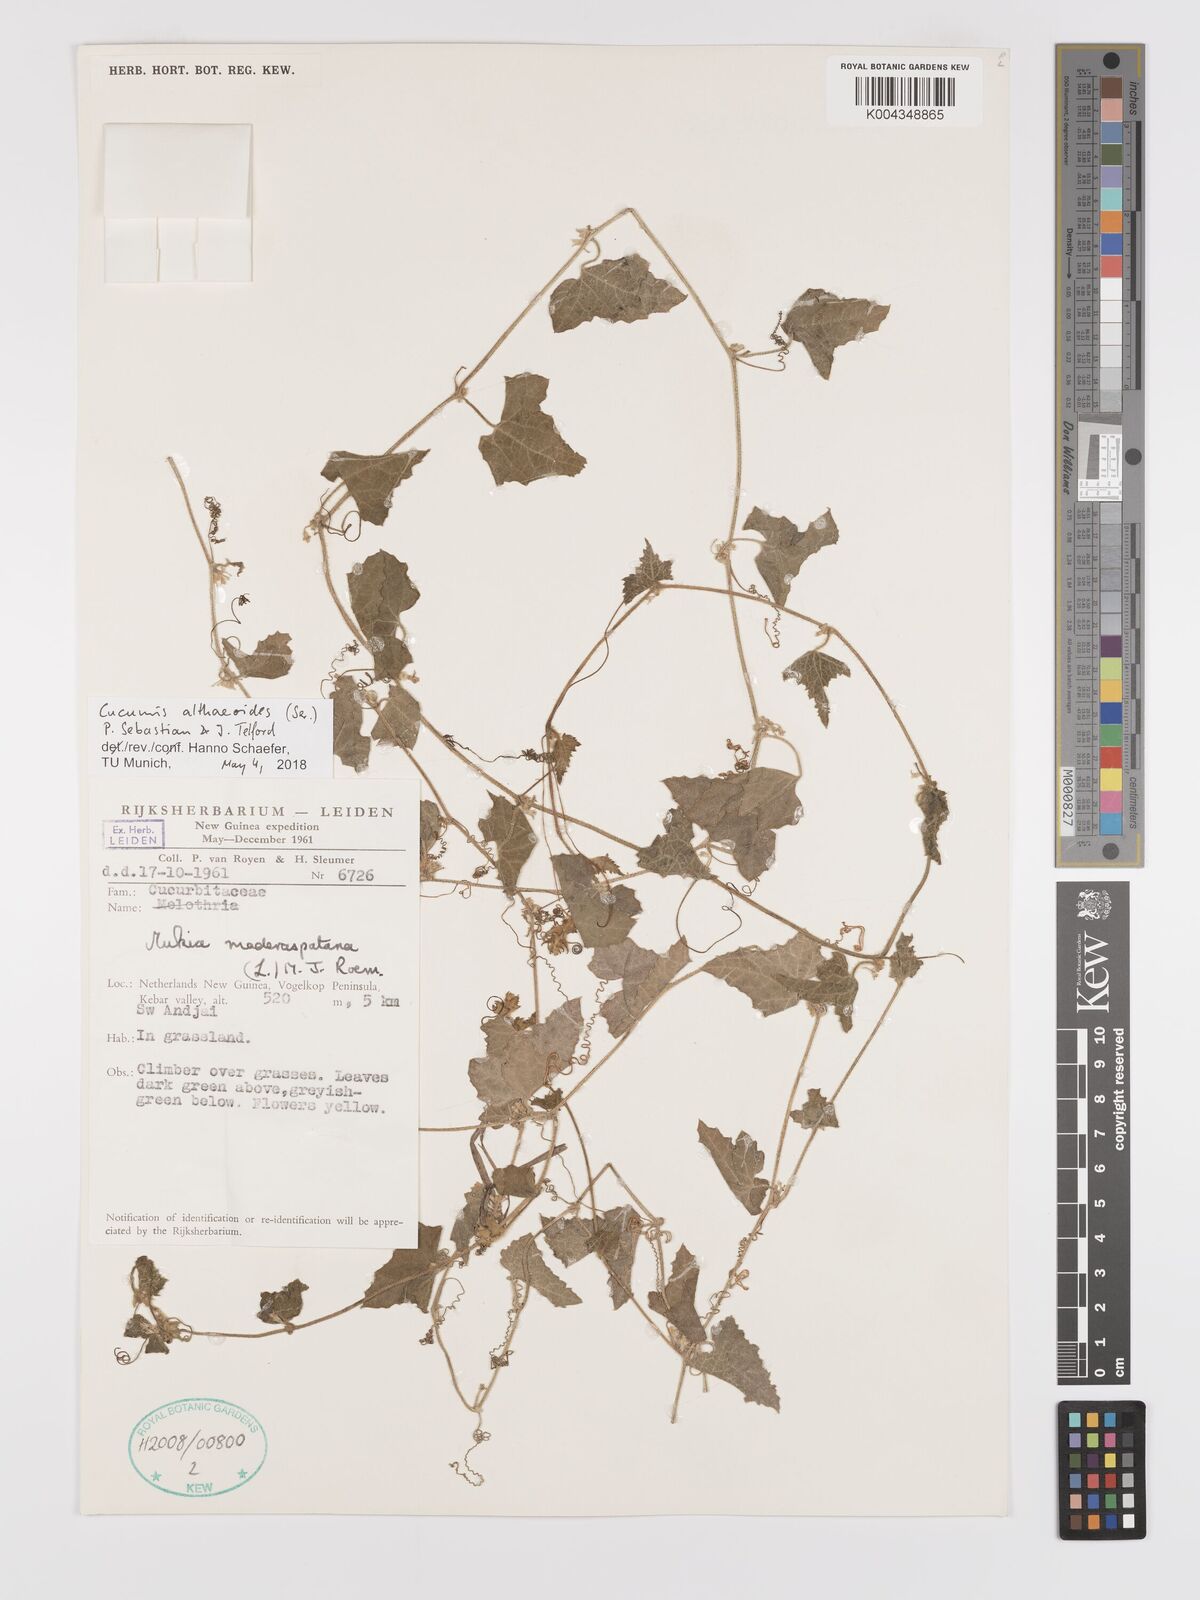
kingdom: Plantae
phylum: Tracheophyta
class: Magnoliopsida
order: Cucurbitales
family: Cucurbitaceae
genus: Cucumis
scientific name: Cucumis maderaspatanus
